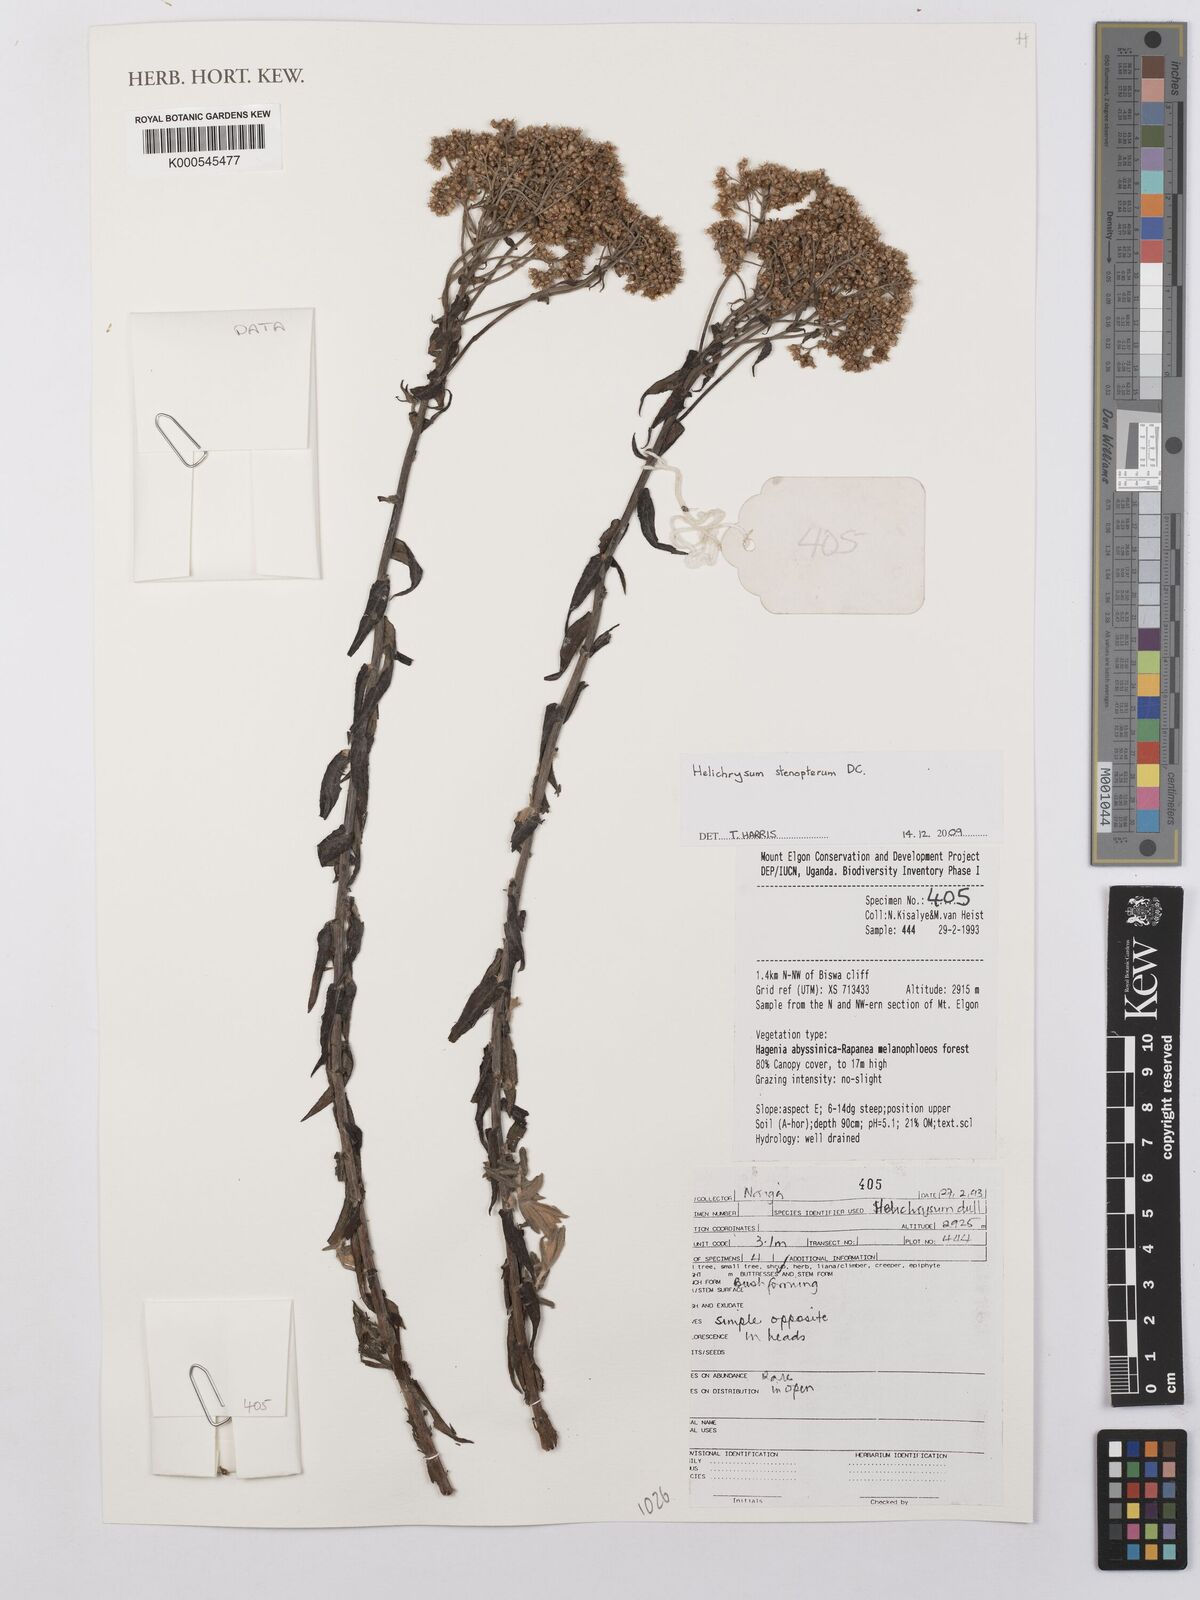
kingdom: Plantae
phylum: Tracheophyta
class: Magnoliopsida
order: Asterales
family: Asteraceae
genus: Helichrysum
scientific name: Helichrysum stenopterum
